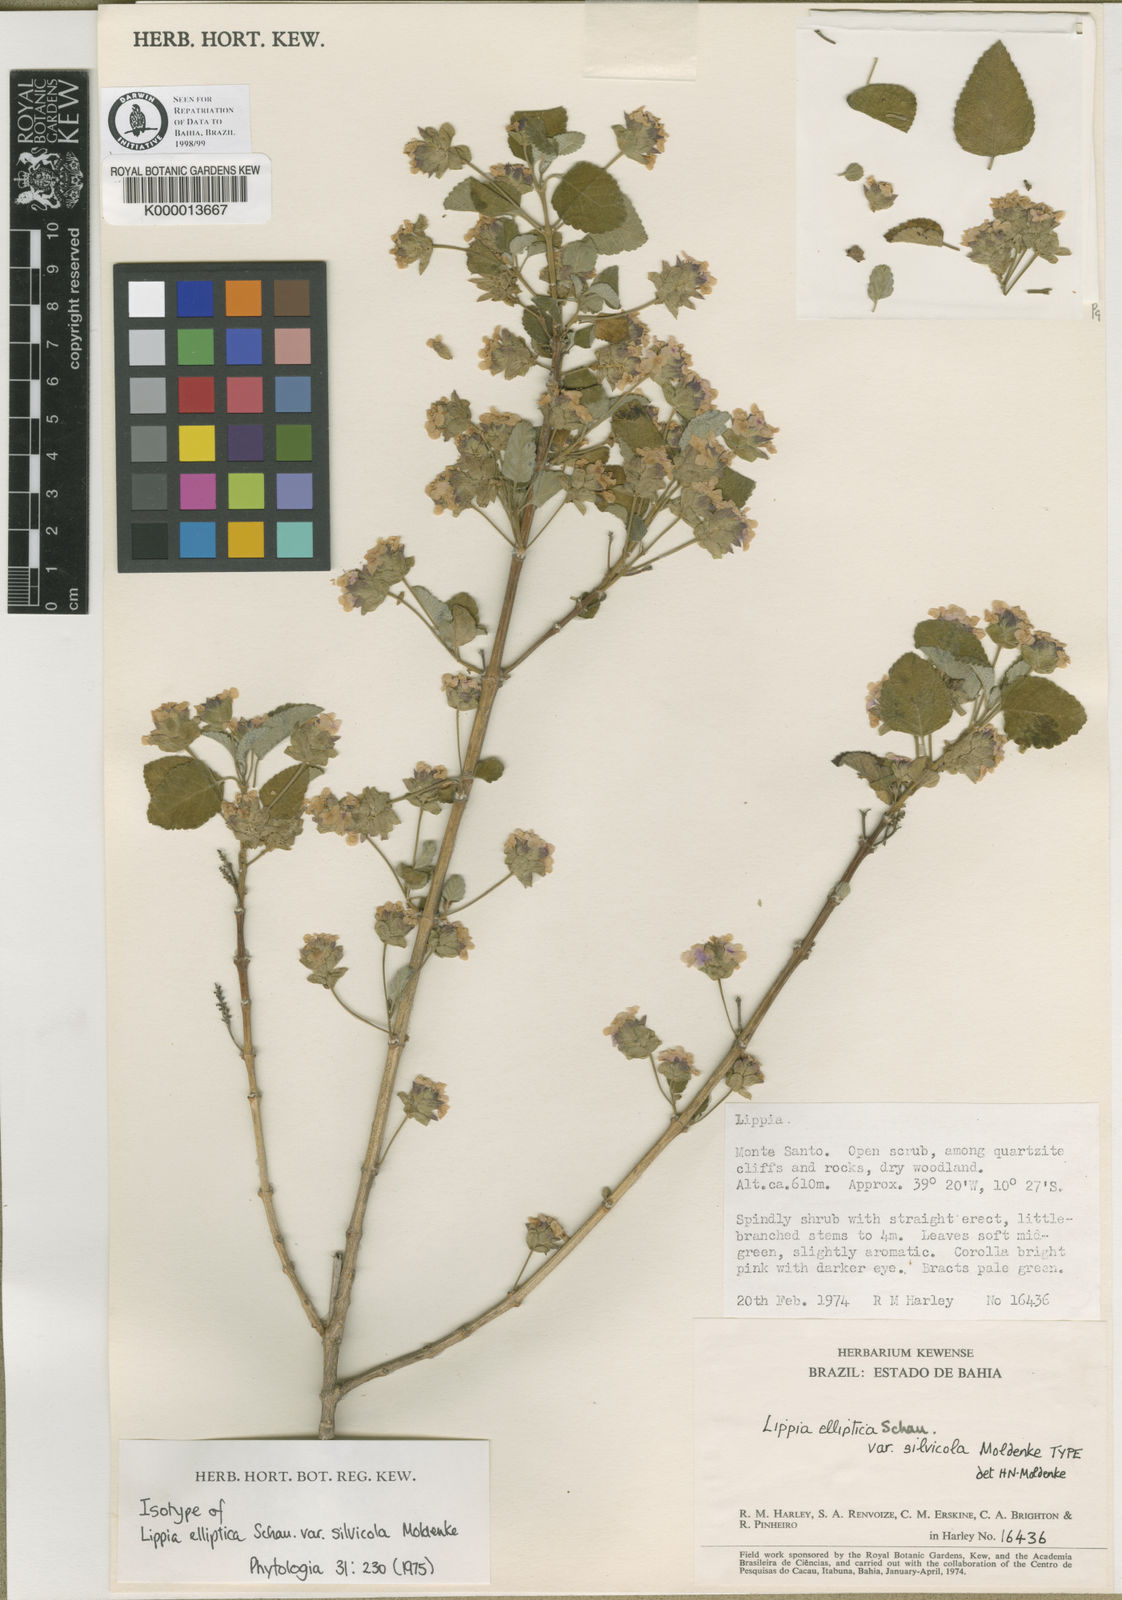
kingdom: Plantae
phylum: Tracheophyta
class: Magnoliopsida
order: Lamiales
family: Verbenaceae
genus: Lippia
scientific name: Lippia subracemosa
